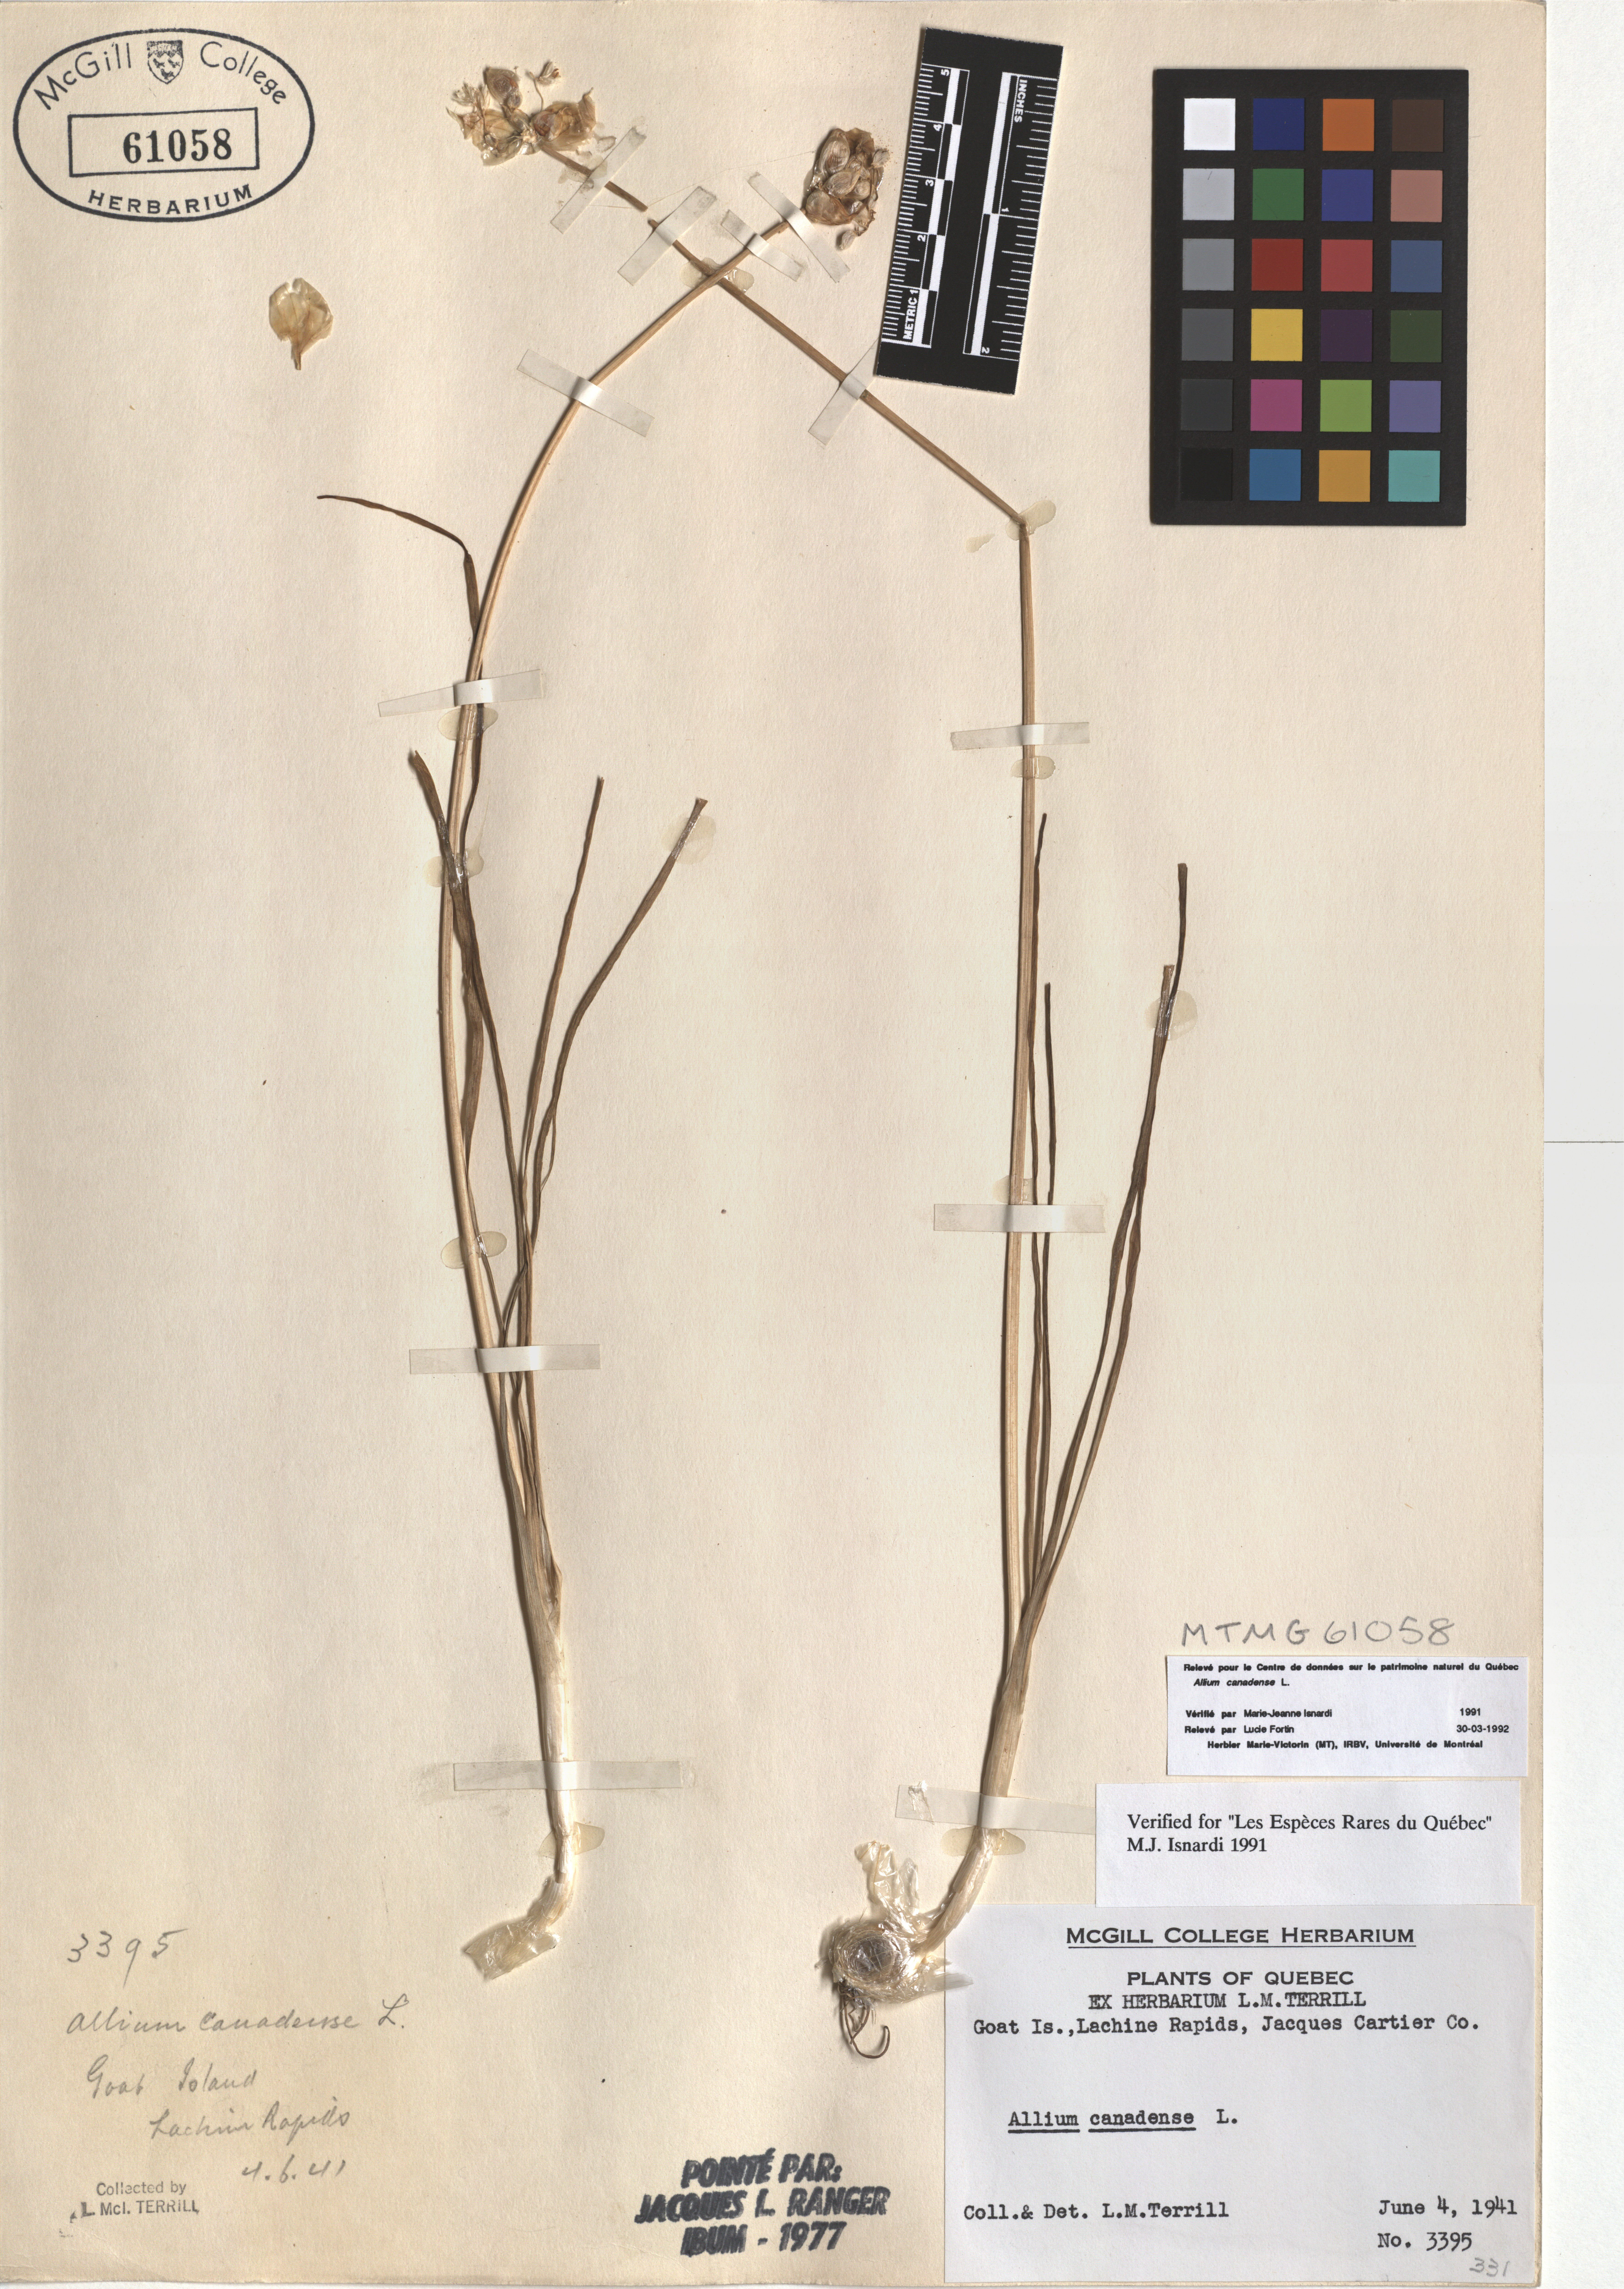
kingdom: Plantae
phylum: Tracheophyta
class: Liliopsida
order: Asparagales
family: Amaryllidaceae
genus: Allium
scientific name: Allium canadense
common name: Meadow garlic
